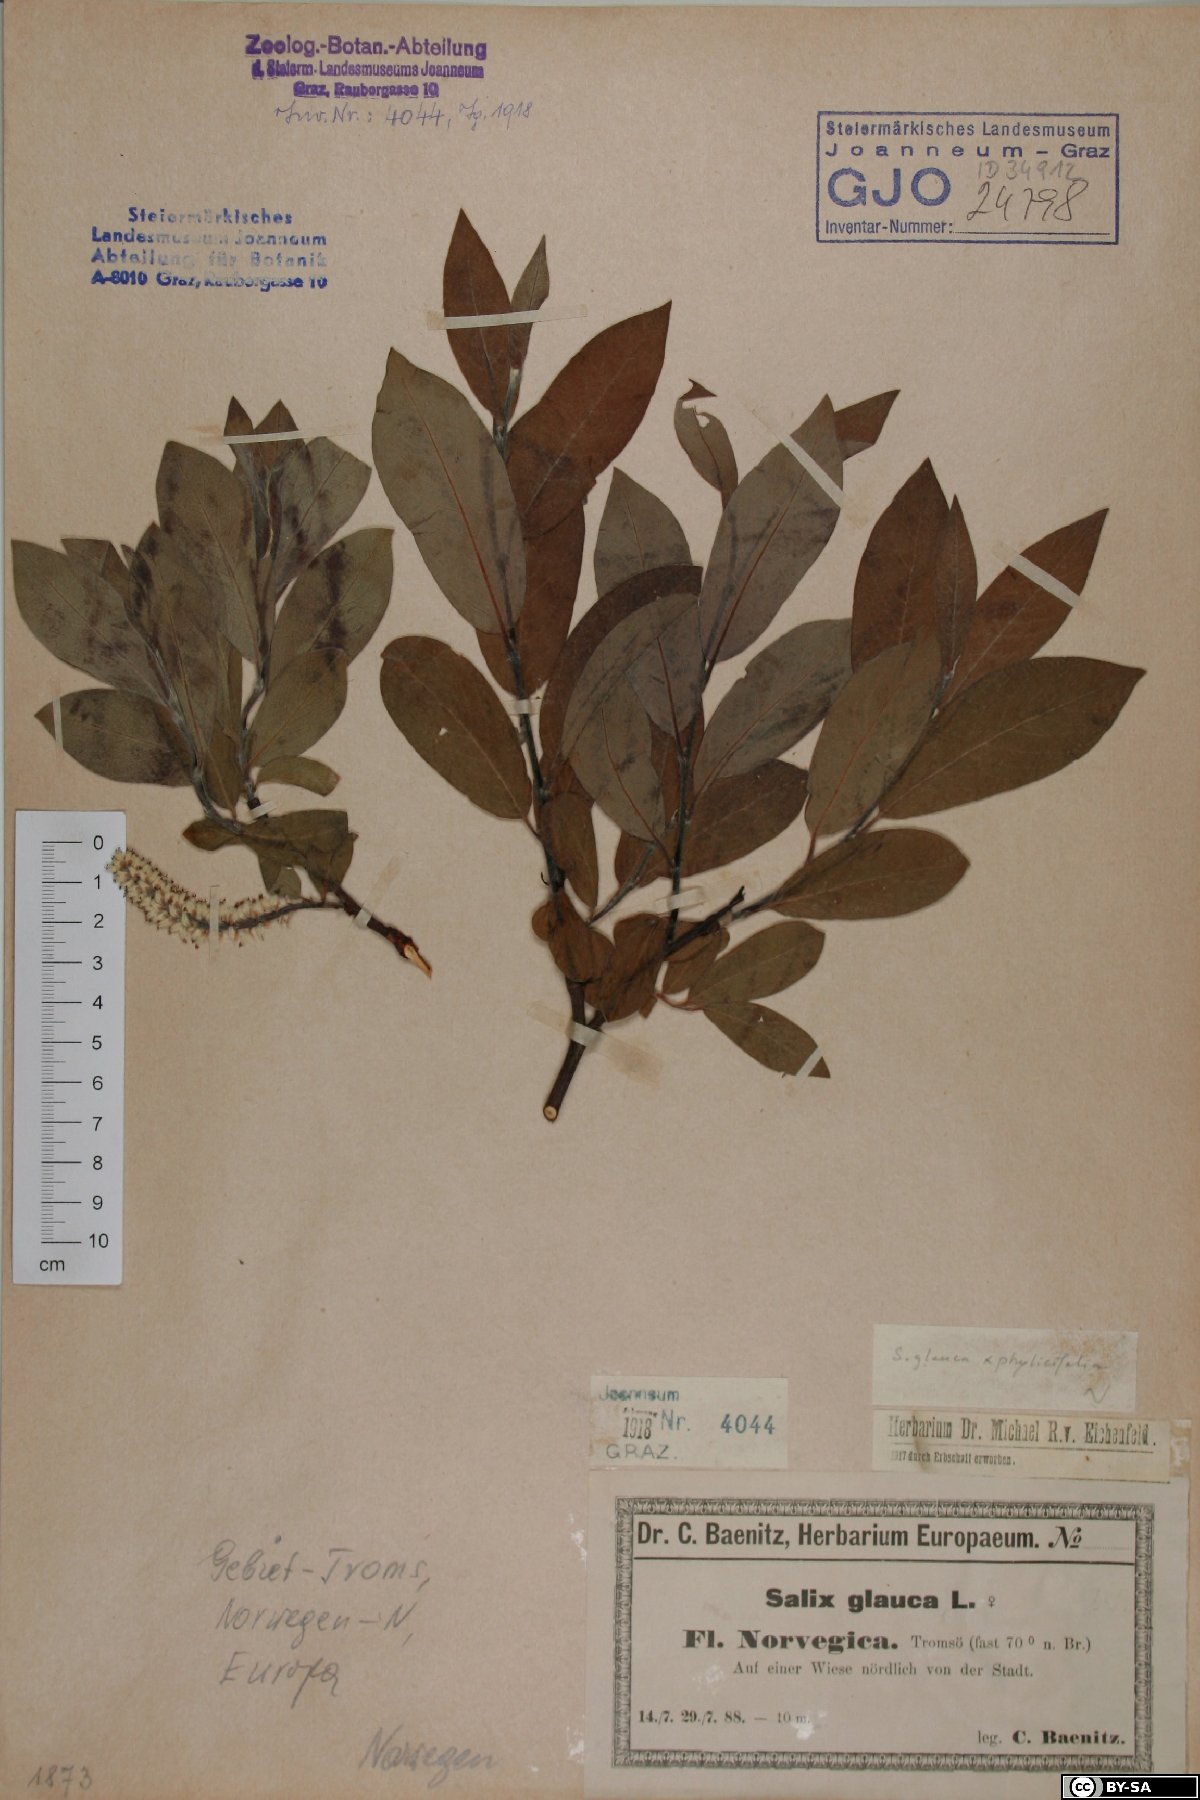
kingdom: Plantae
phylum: Tracheophyta
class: Magnoliopsida
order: Malpighiales
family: Salicaceae
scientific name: Salicaceae
